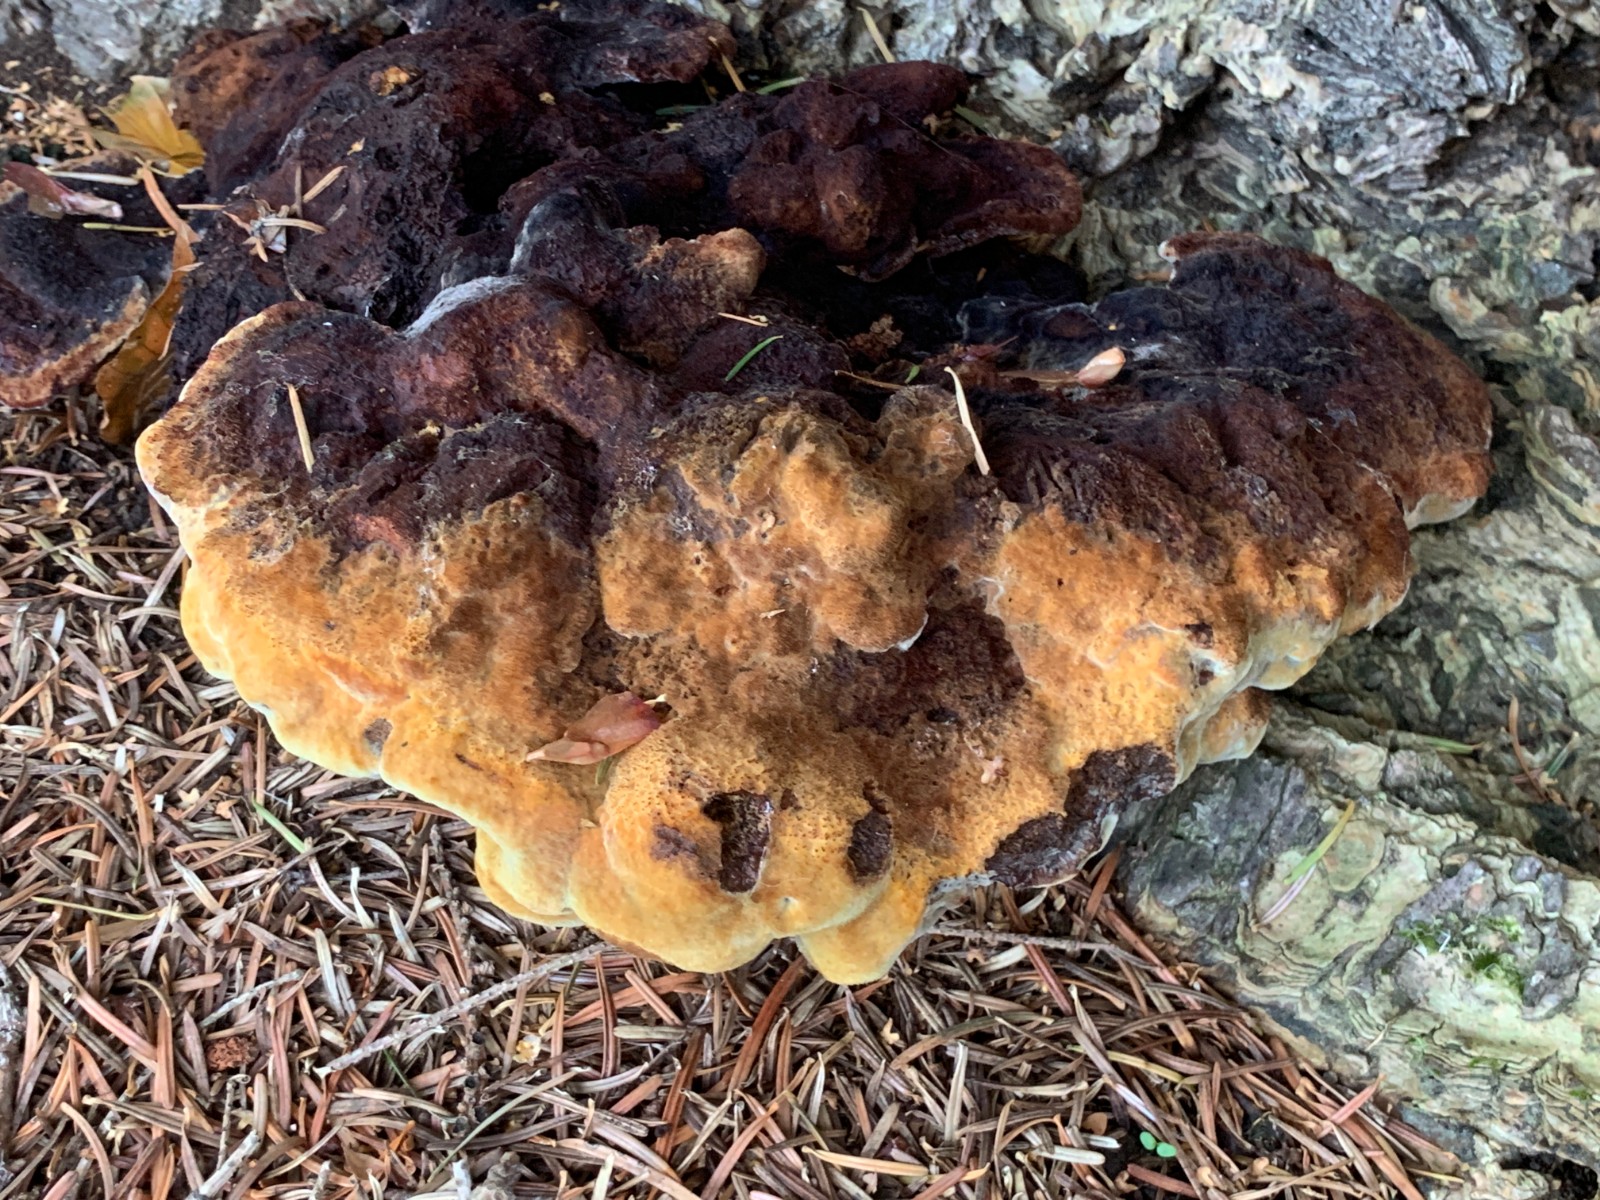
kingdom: Fungi
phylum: Basidiomycota
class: Agaricomycetes
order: Polyporales
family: Laetiporaceae
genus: Phaeolus
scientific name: Phaeolus schweinitzii
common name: brunporesvamp
